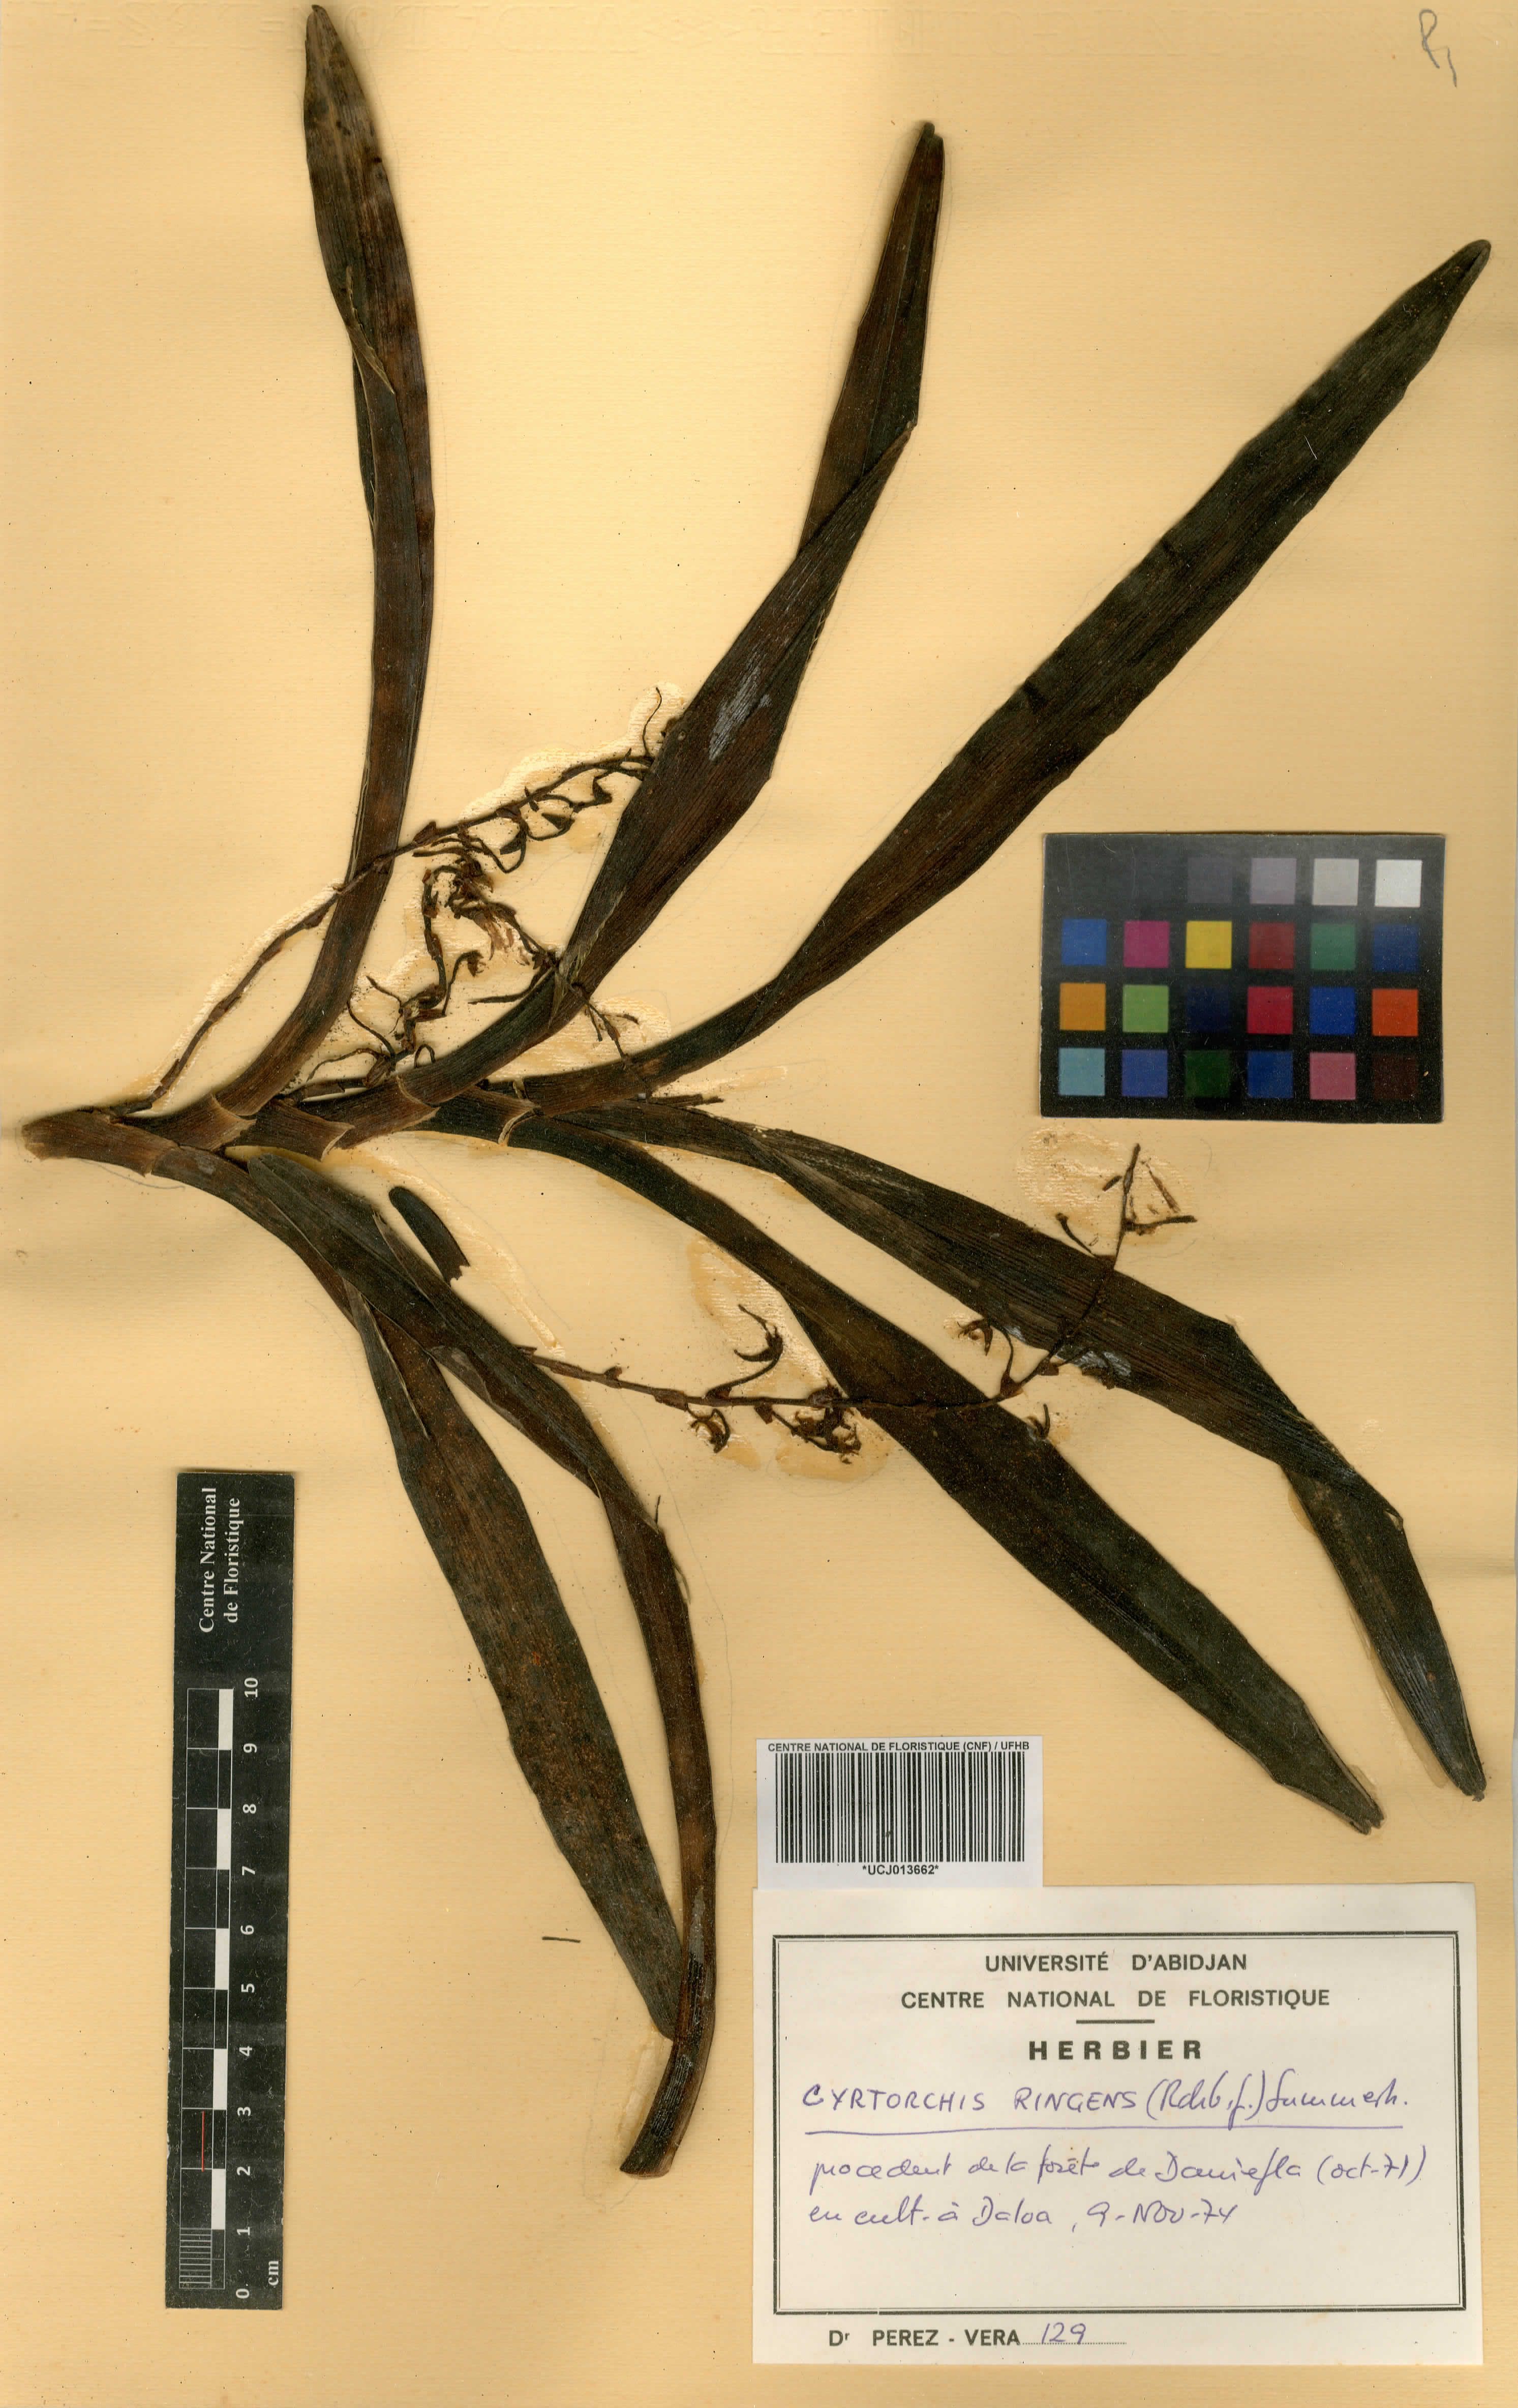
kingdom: Plantae
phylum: Tracheophyta
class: Liliopsida
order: Asparagales
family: Orchidaceae
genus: Cyrtorchis
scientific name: Cyrtorchis ringens
